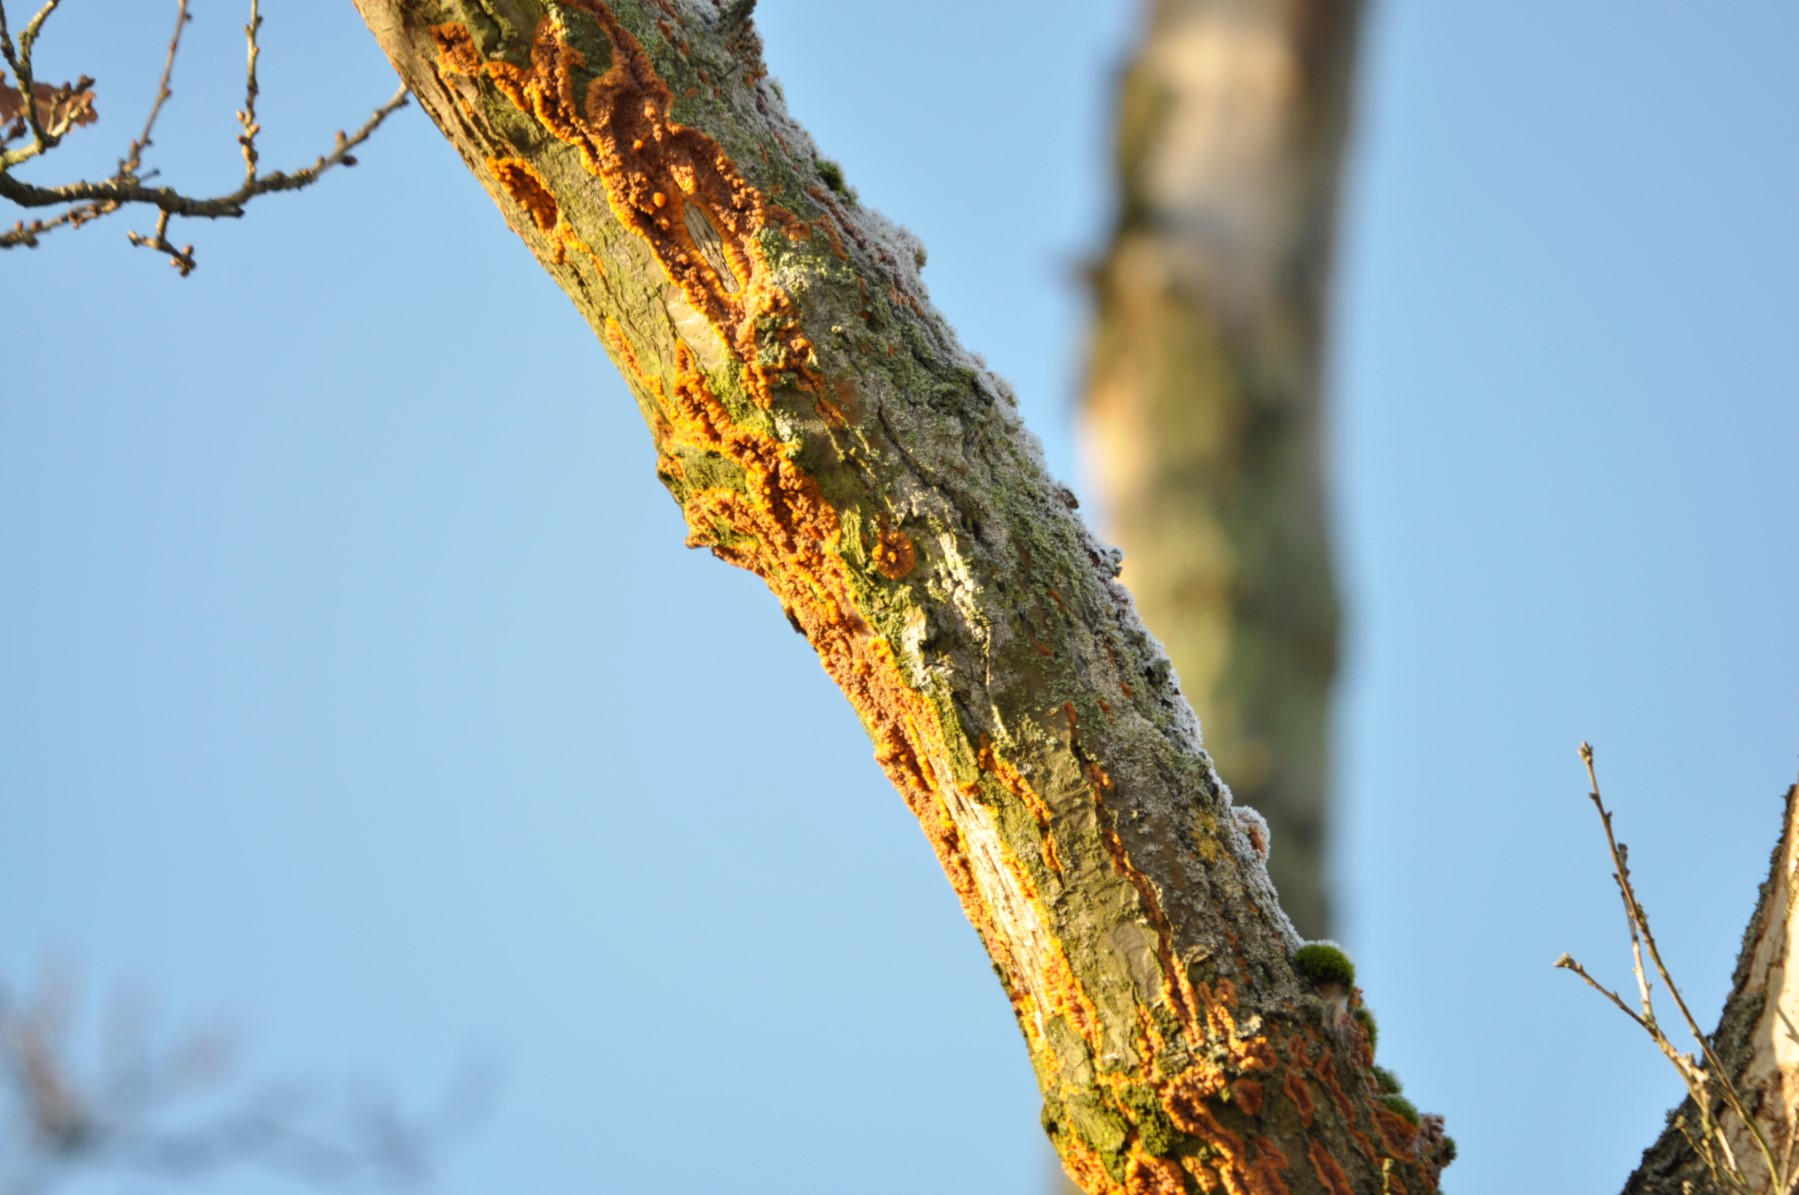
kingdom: Fungi
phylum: Basidiomycota
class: Agaricomycetes
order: Polyporales
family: Meruliaceae
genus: Phlebia
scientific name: Phlebia radiata
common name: stråle-åresvamp
